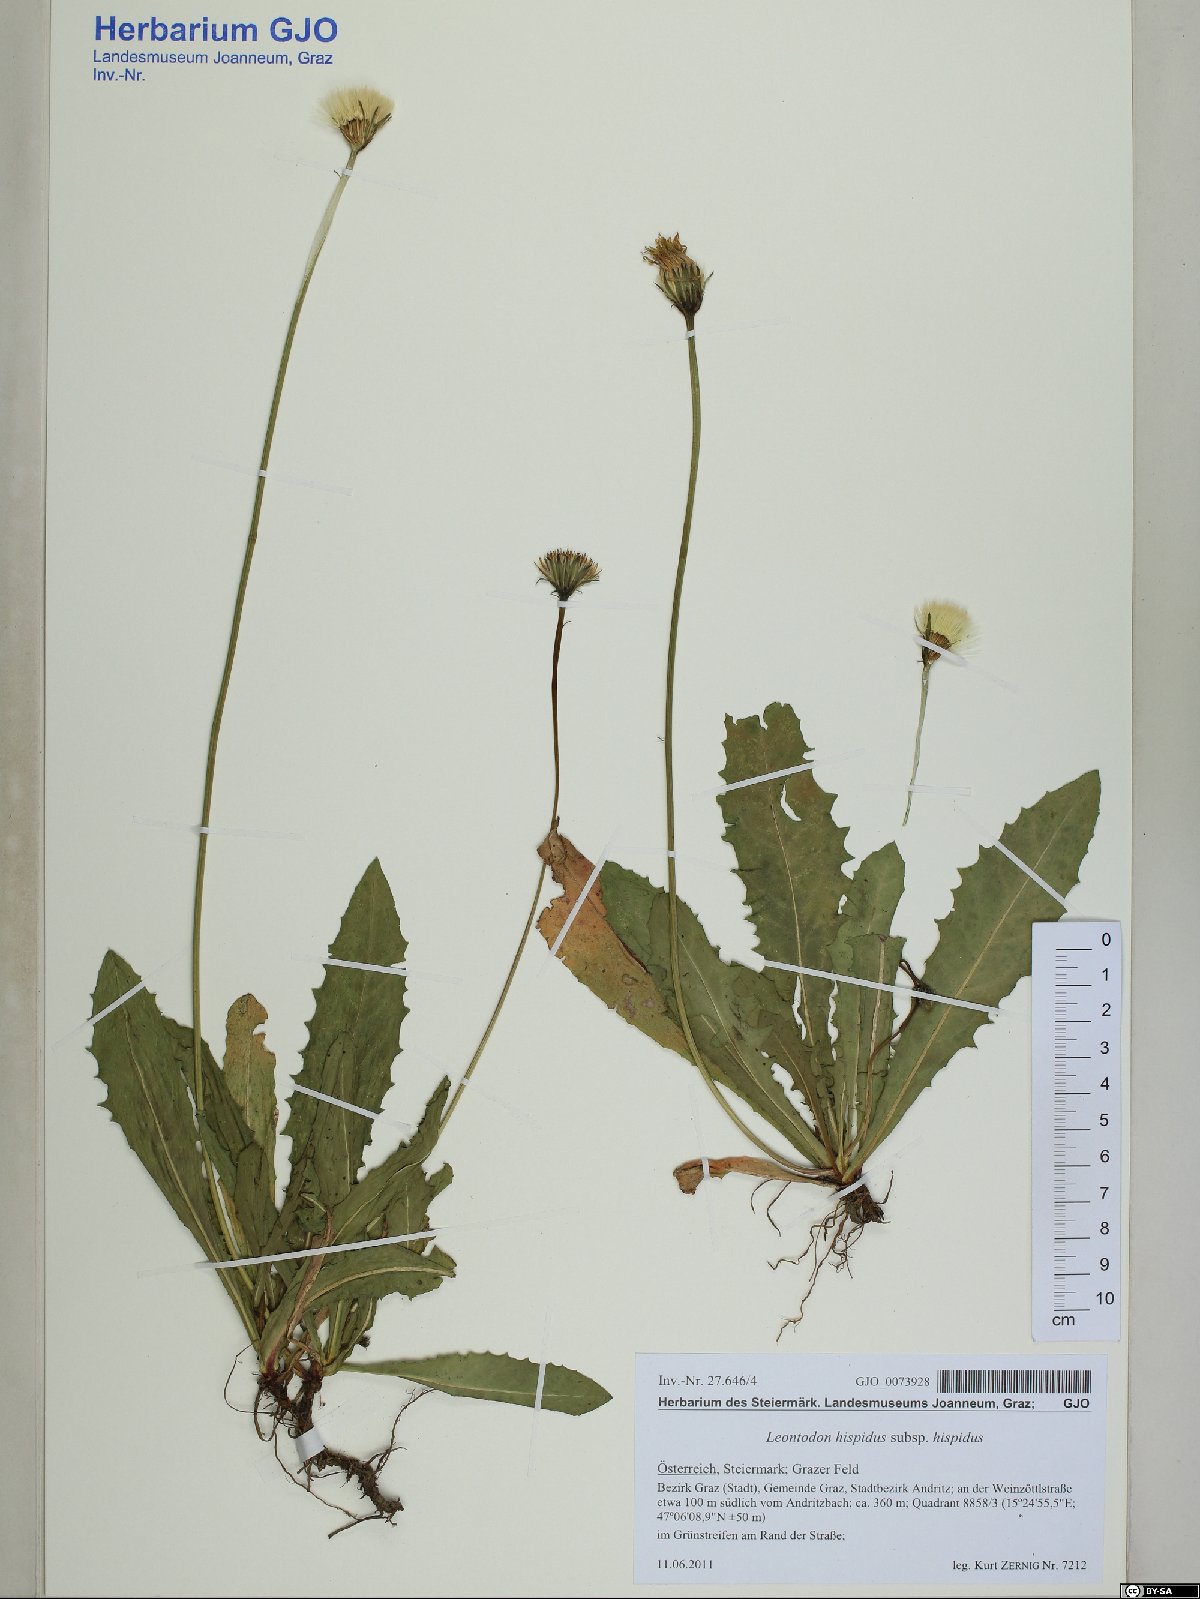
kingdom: Plantae
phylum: Tracheophyta
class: Magnoliopsida
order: Asterales
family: Asteraceae
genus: Leontodon
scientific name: Leontodon hispidus
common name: Rough hawkbit
